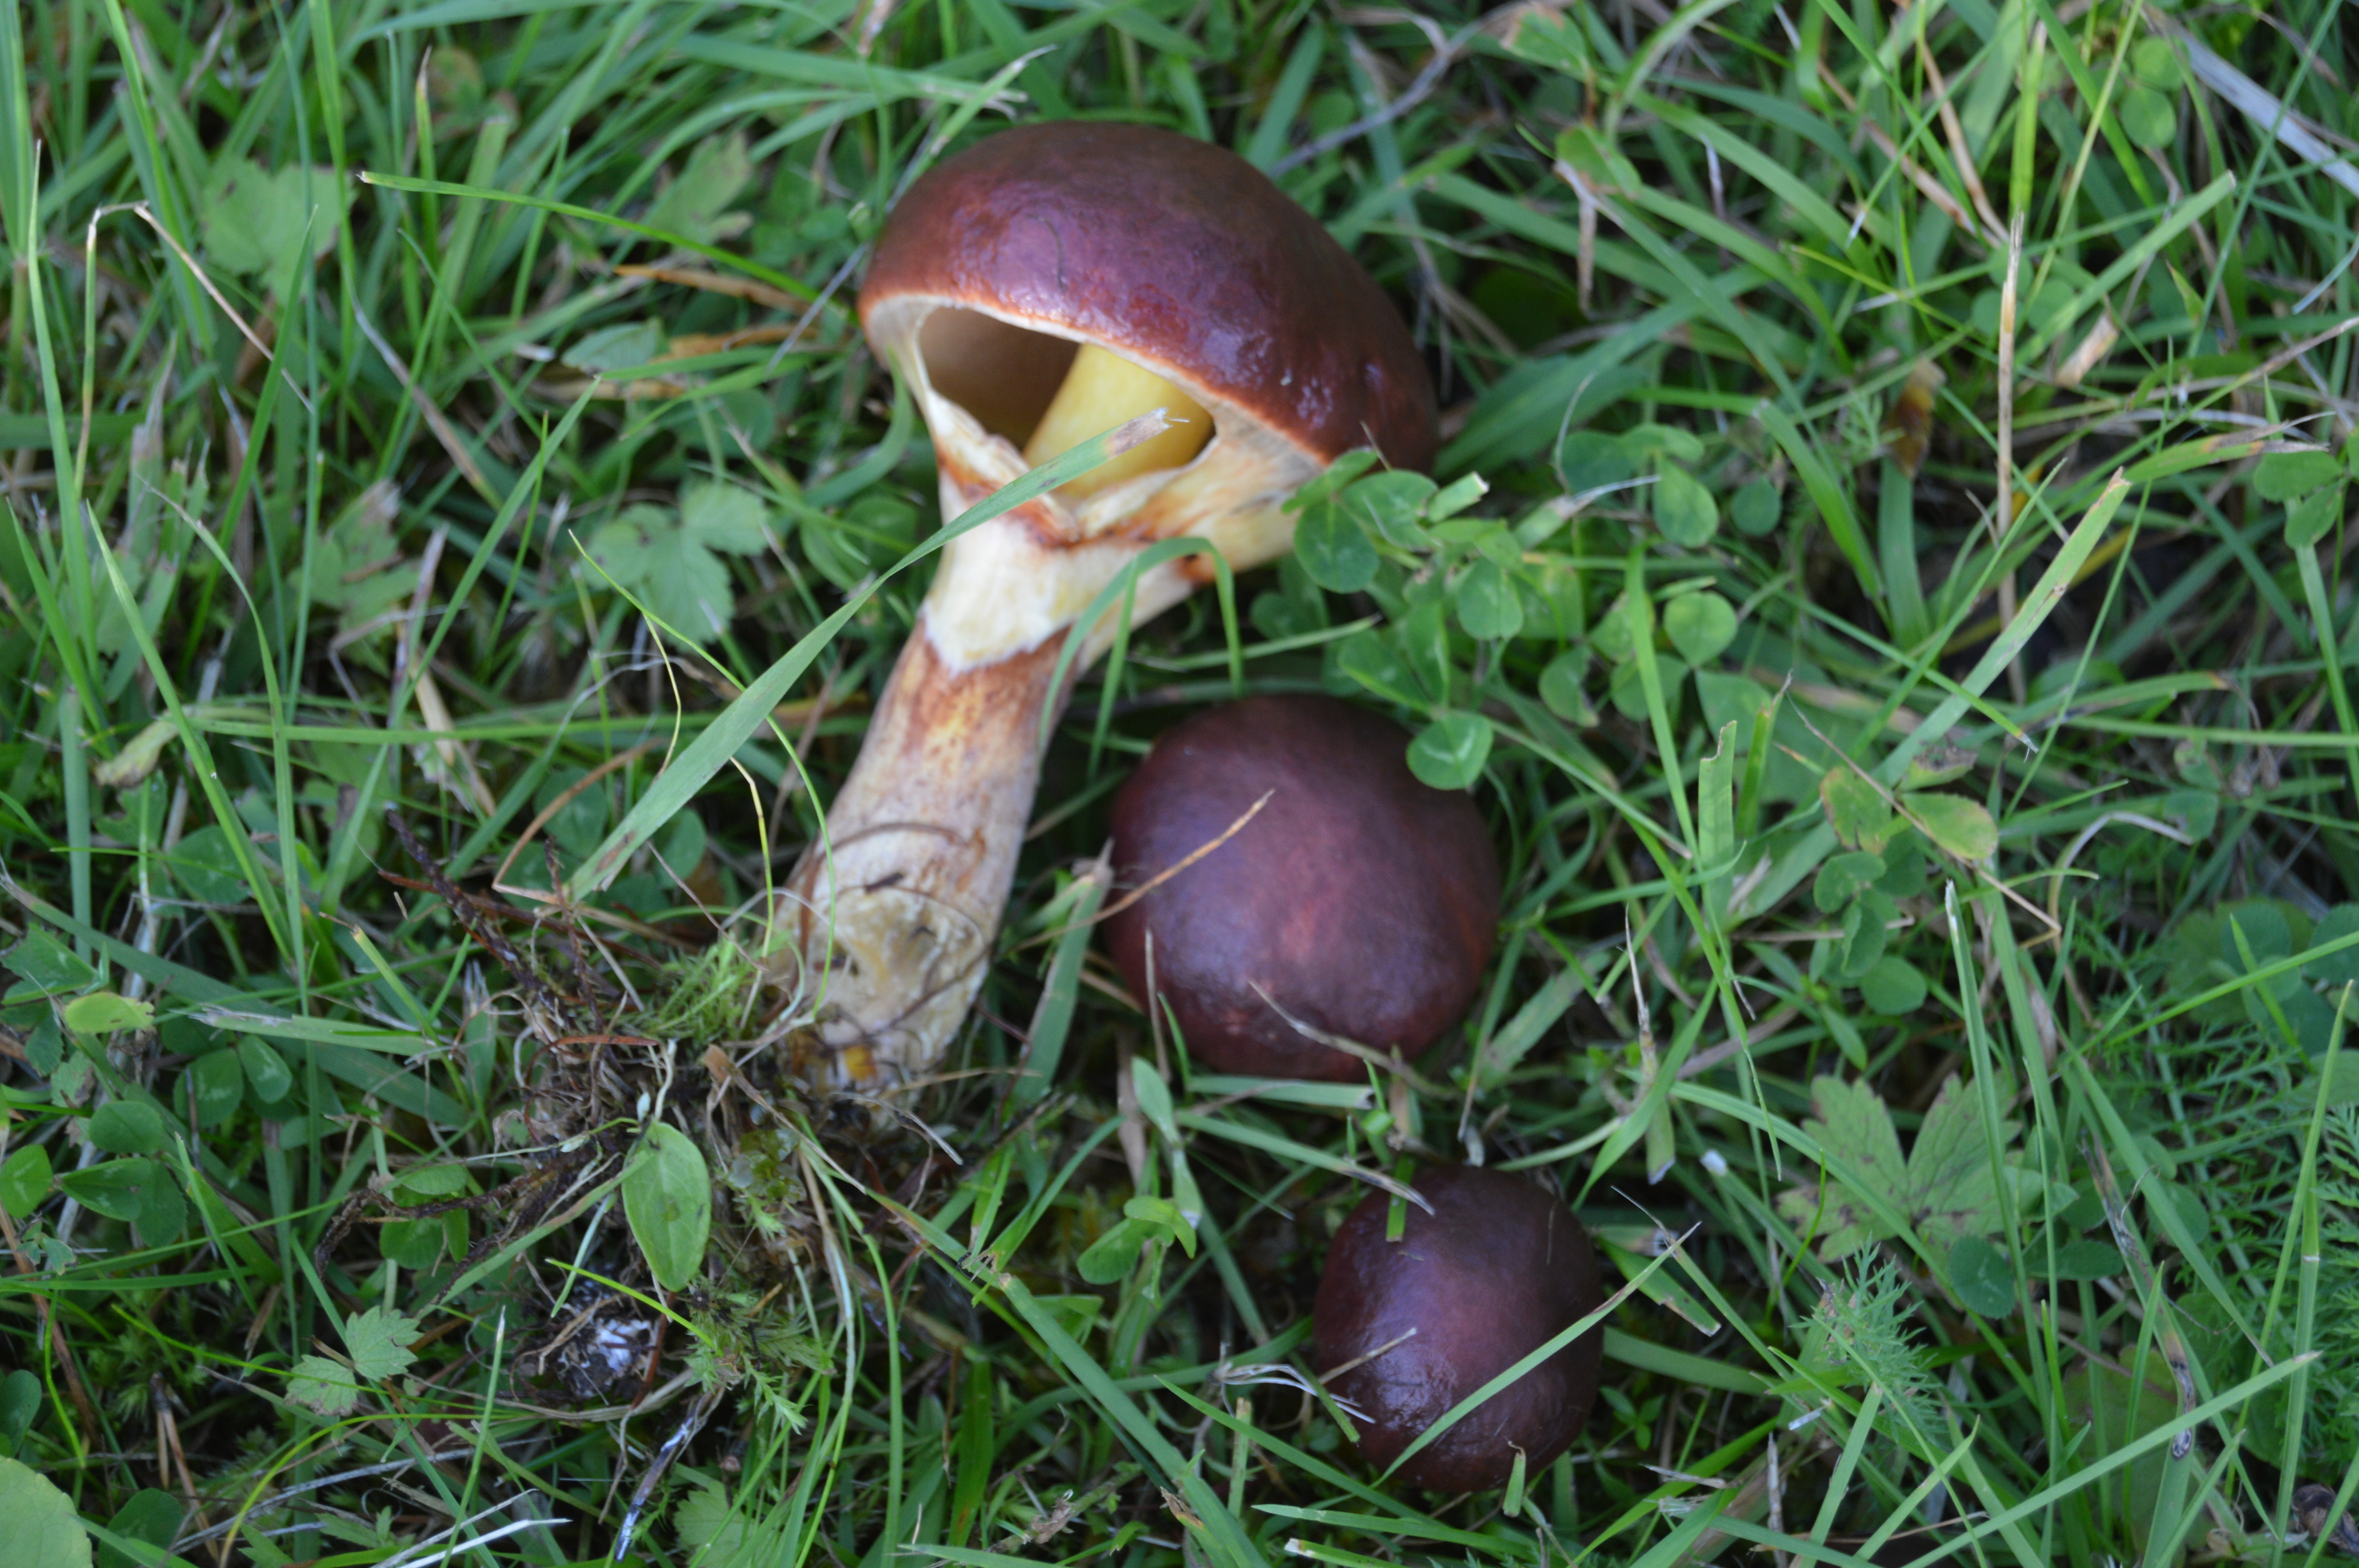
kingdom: Fungi
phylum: Basidiomycota
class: Agaricomycetes
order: Boletales
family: Suillaceae
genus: Suillus
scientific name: Suillus grevillei
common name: Larch bolete
